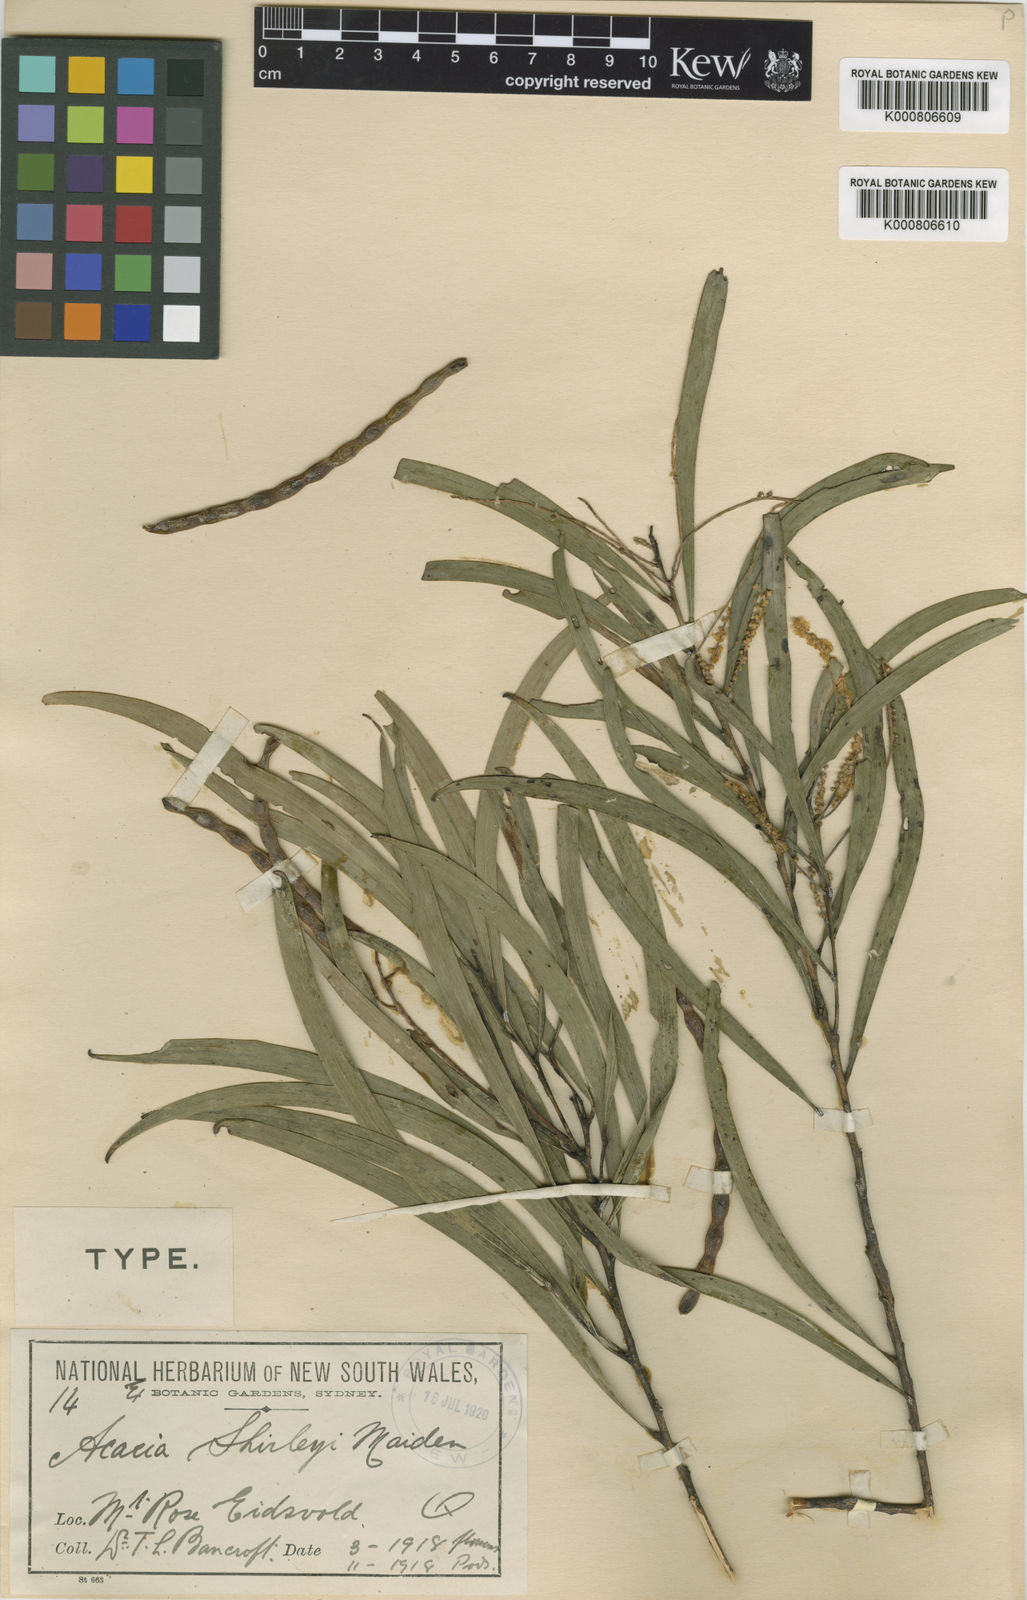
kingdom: Plantae
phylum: Tracheophyta
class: Magnoliopsida
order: Fabales
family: Fabaceae
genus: Acacia
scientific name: Acacia shirleyi
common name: Lancewood
